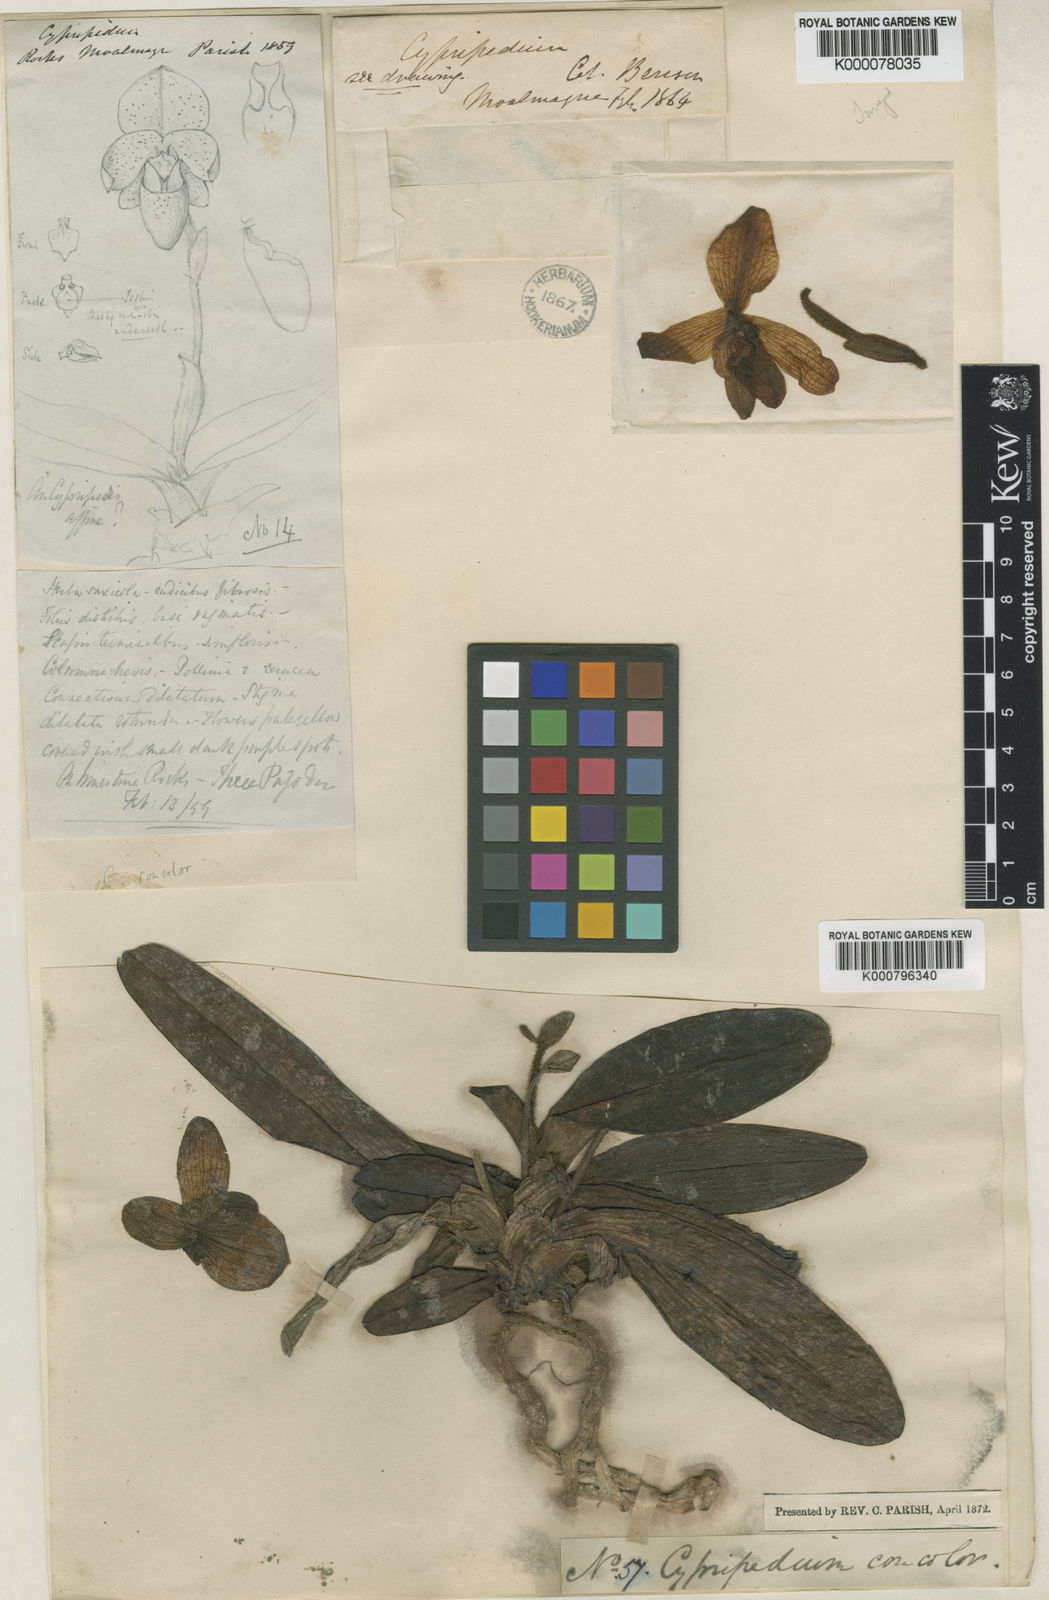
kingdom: Plantae
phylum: Tracheophyta
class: Liliopsida
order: Asparagales
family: Orchidaceae
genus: Paphiopedilum
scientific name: Paphiopedilum concolor
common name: One colored paphiopedilum
